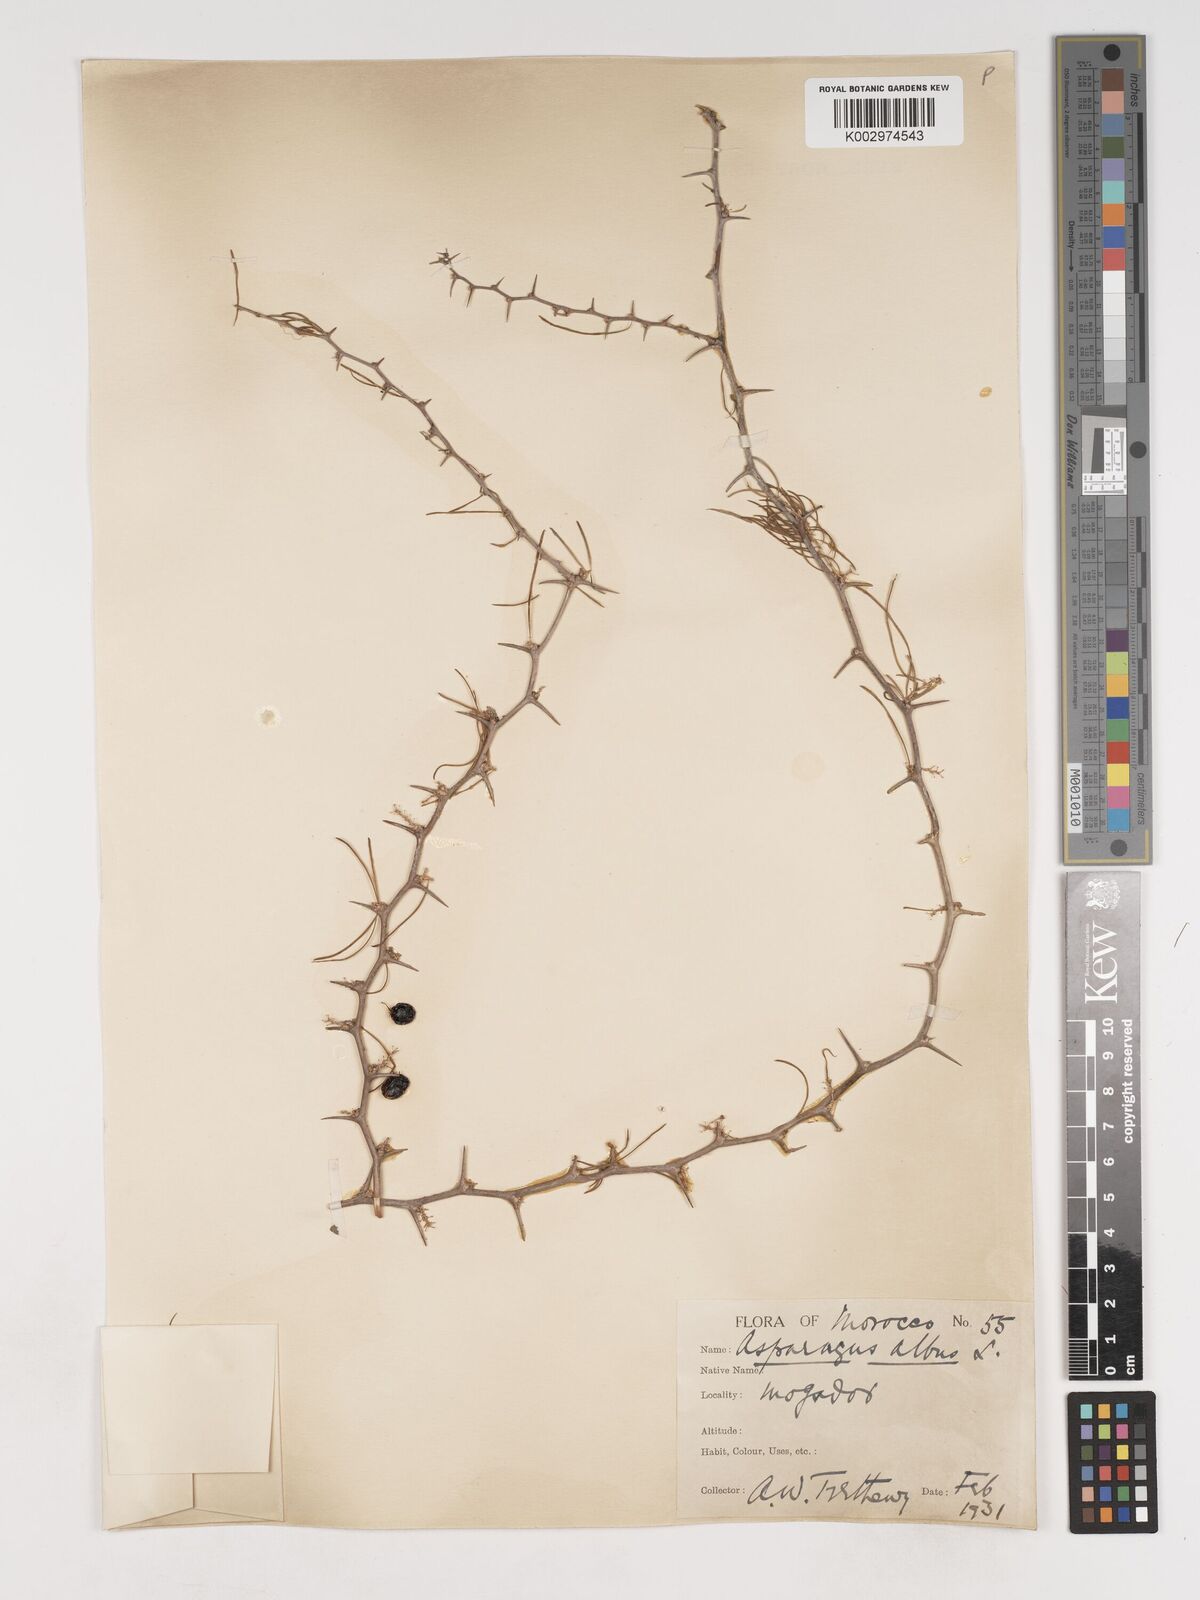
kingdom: Plantae
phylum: Tracheophyta
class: Liliopsida
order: Asparagales
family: Asparagaceae
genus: Asparagus
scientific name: Asparagus albus
